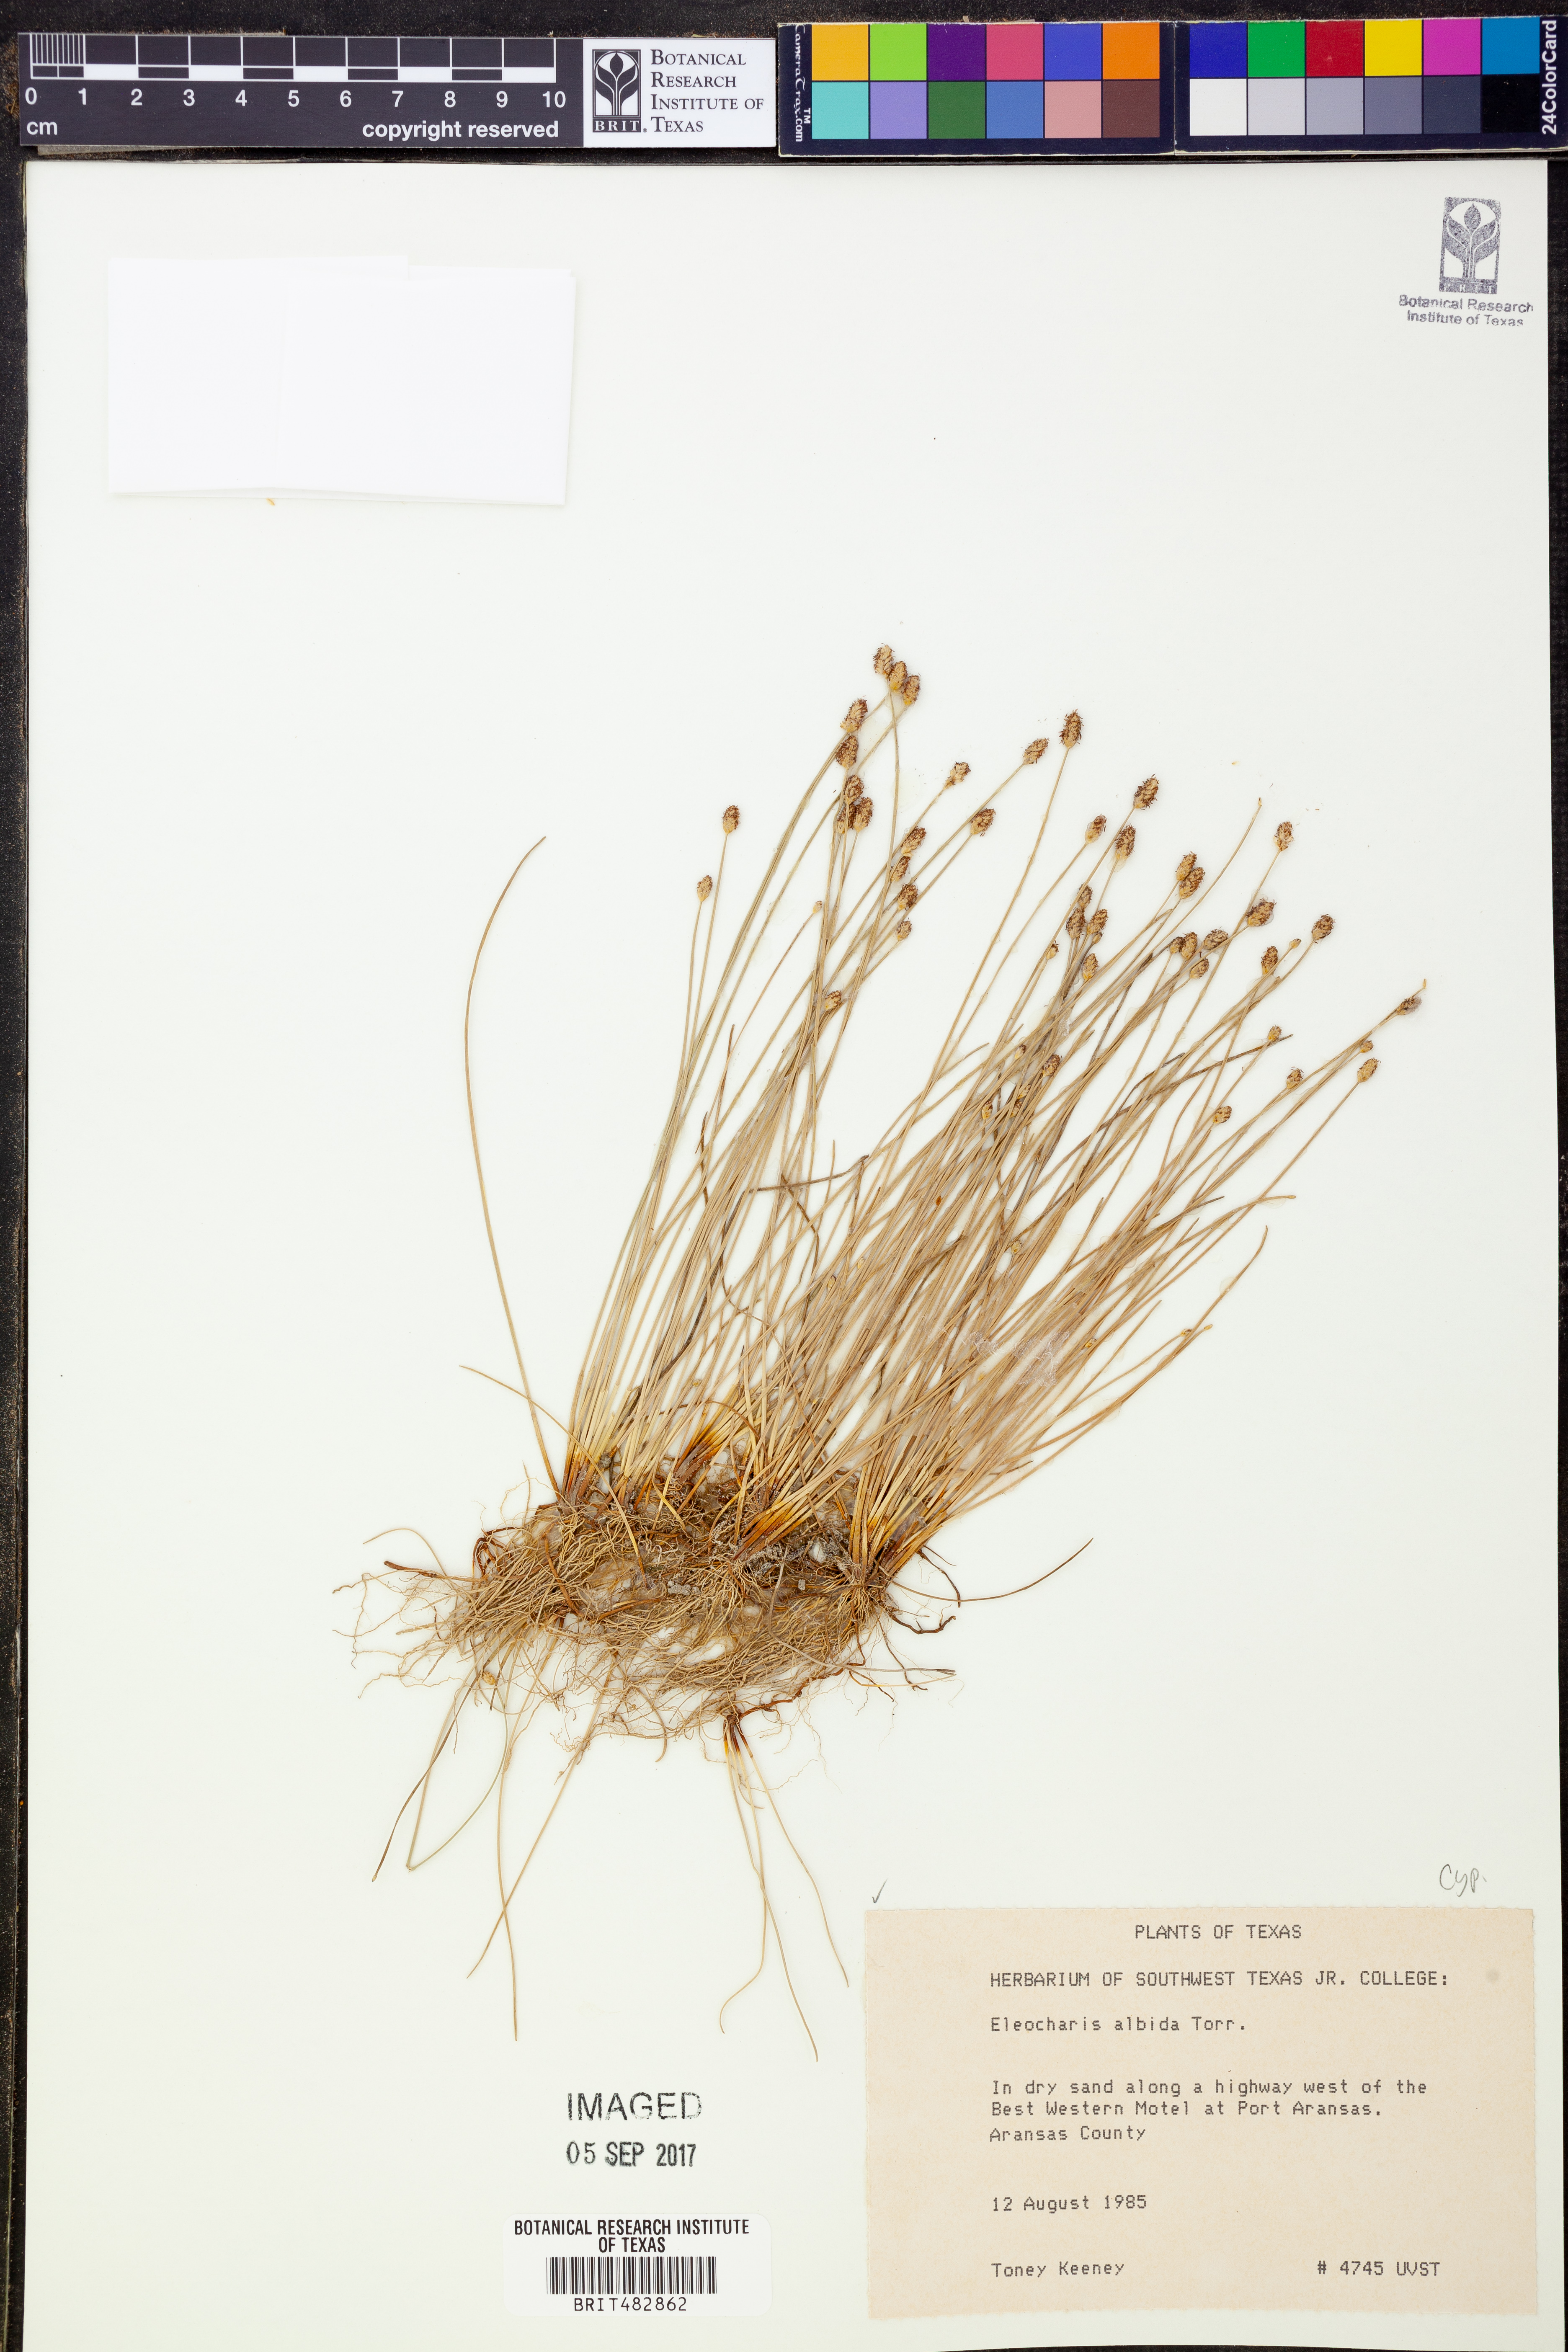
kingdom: Plantae
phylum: Tracheophyta
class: Liliopsida
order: Poales
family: Cyperaceae
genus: Eleocharis
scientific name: Eleocharis albida
